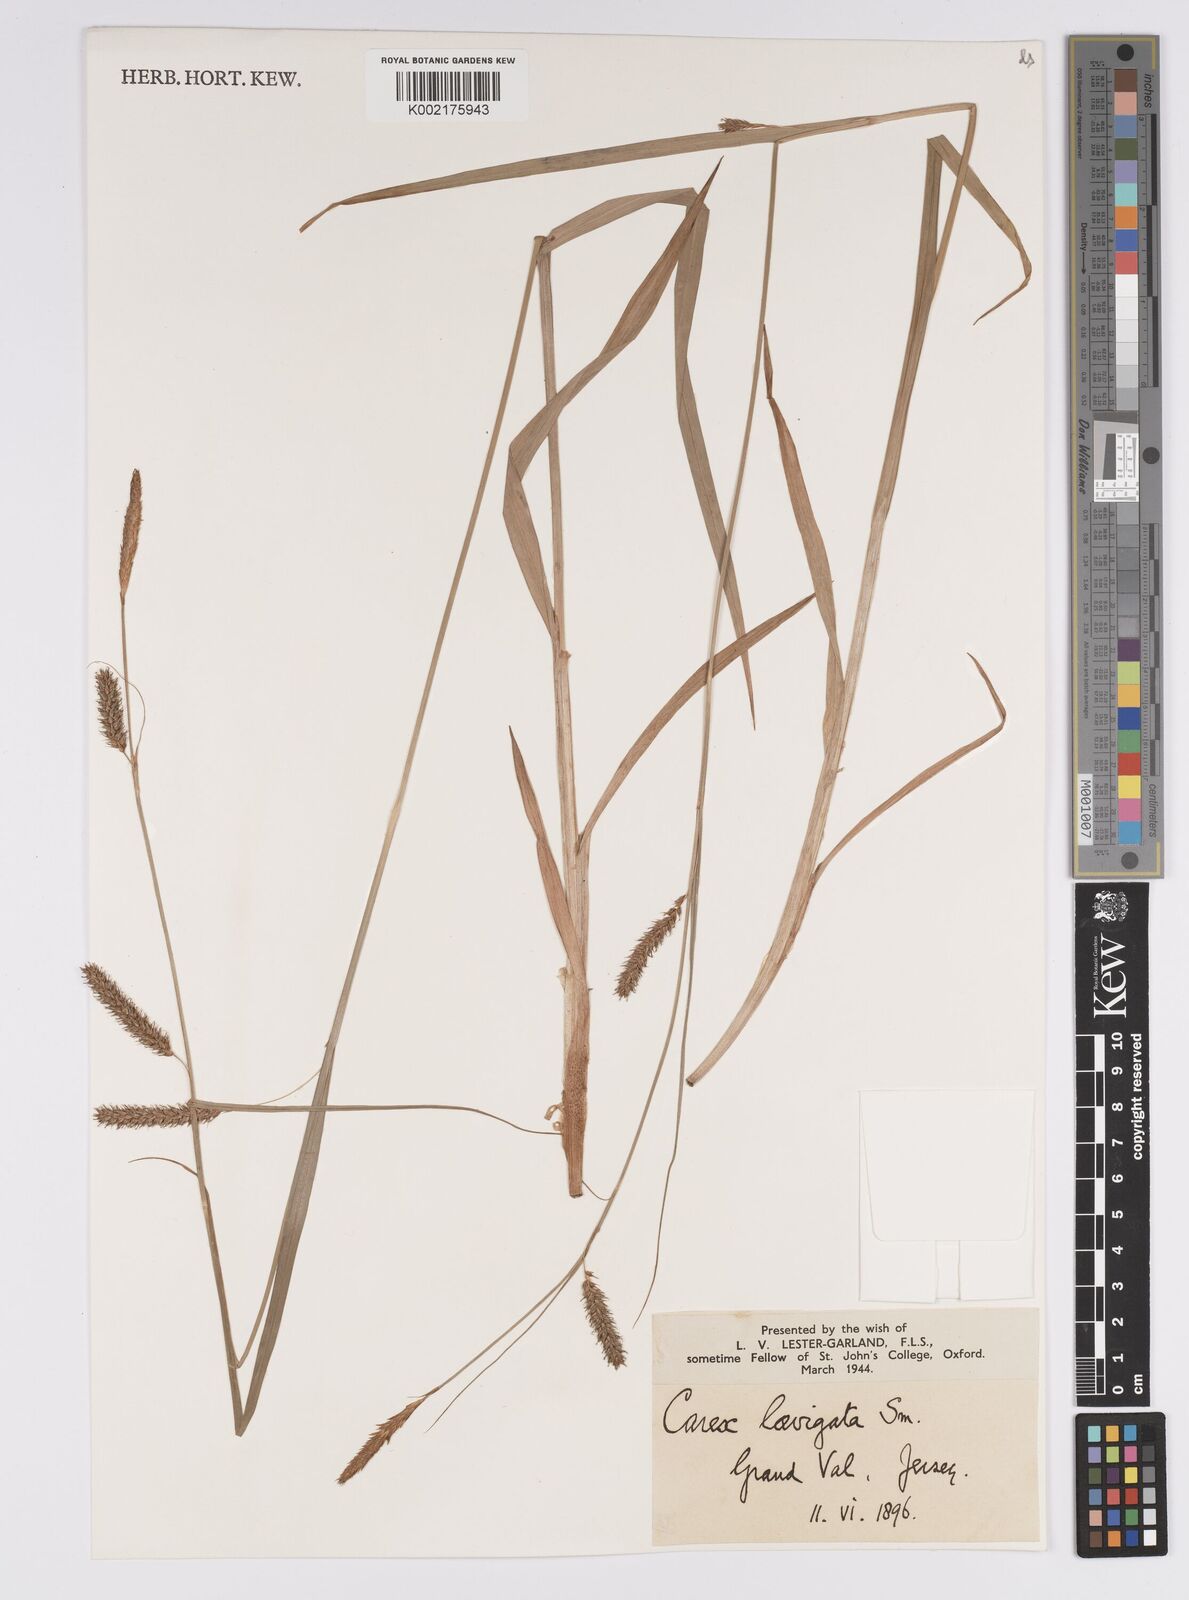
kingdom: Plantae
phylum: Tracheophyta
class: Liliopsida
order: Poales
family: Cyperaceae
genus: Carex
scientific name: Carex laevigata
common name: Smooth-stalked sedge
